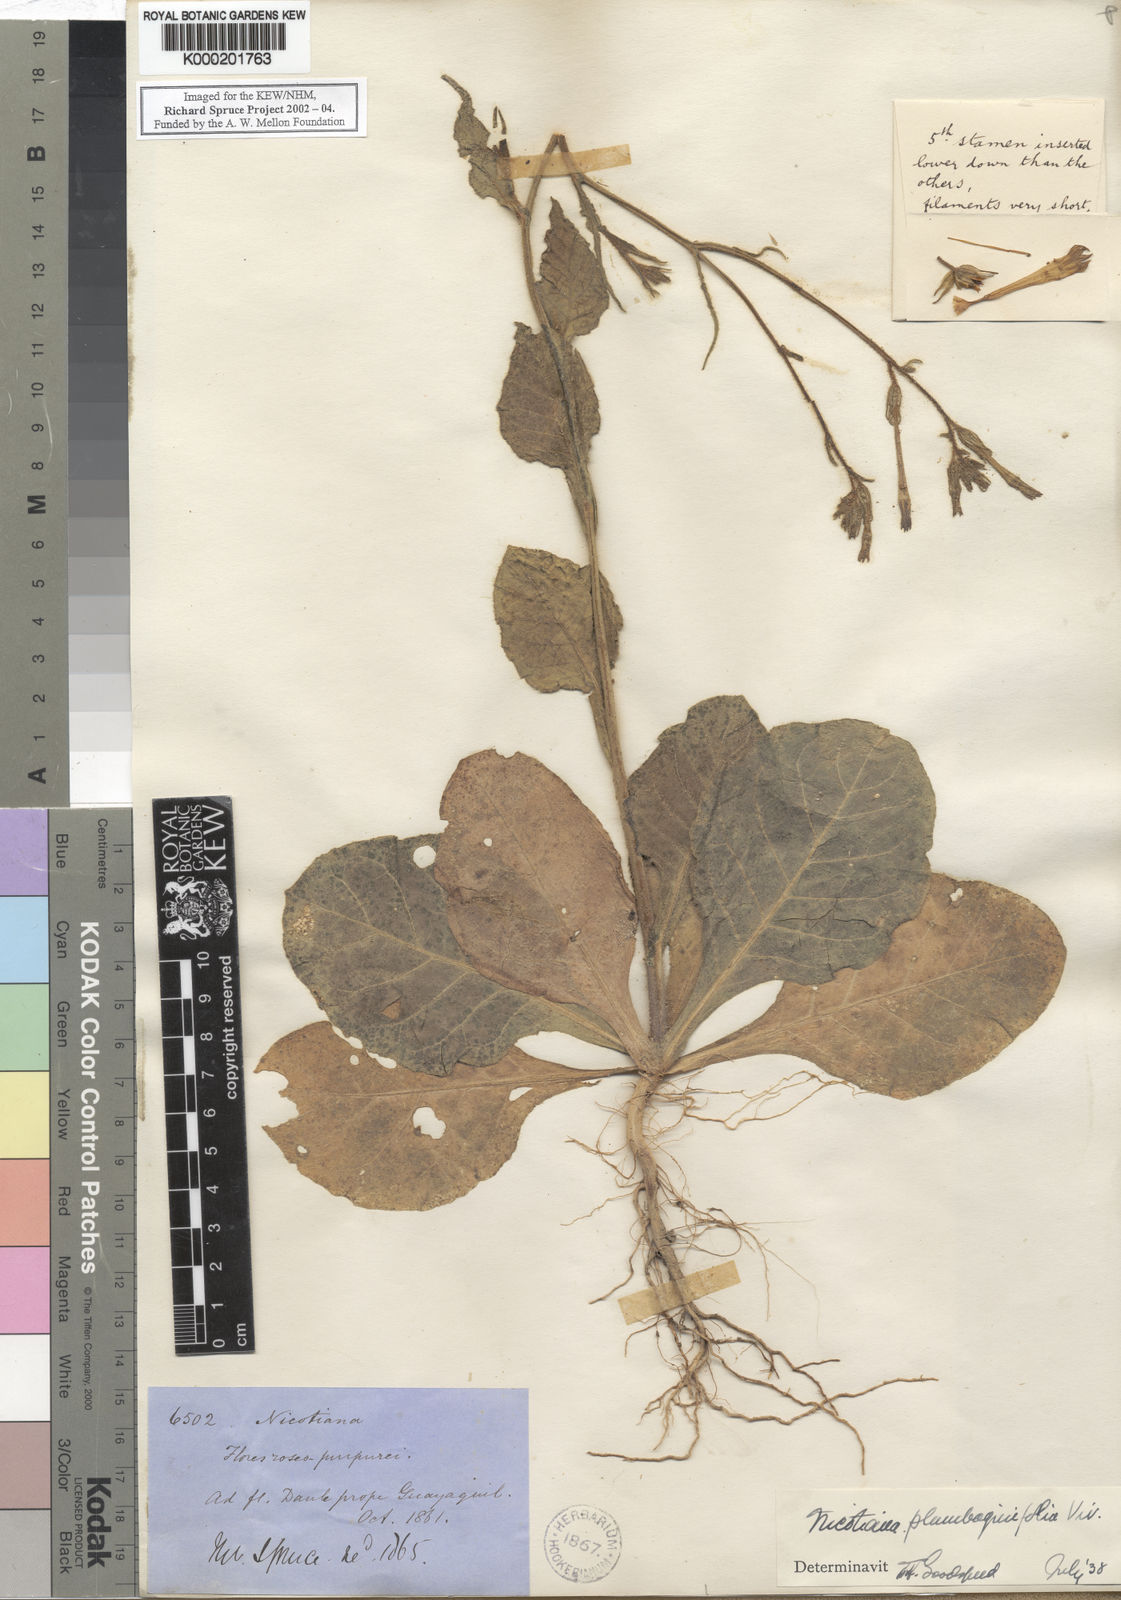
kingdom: Plantae
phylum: Tracheophyta
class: Magnoliopsida
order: Solanales
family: Solanaceae
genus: Nicotiana
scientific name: Nicotiana plumbaginifolia
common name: Tex-mex tobacco
